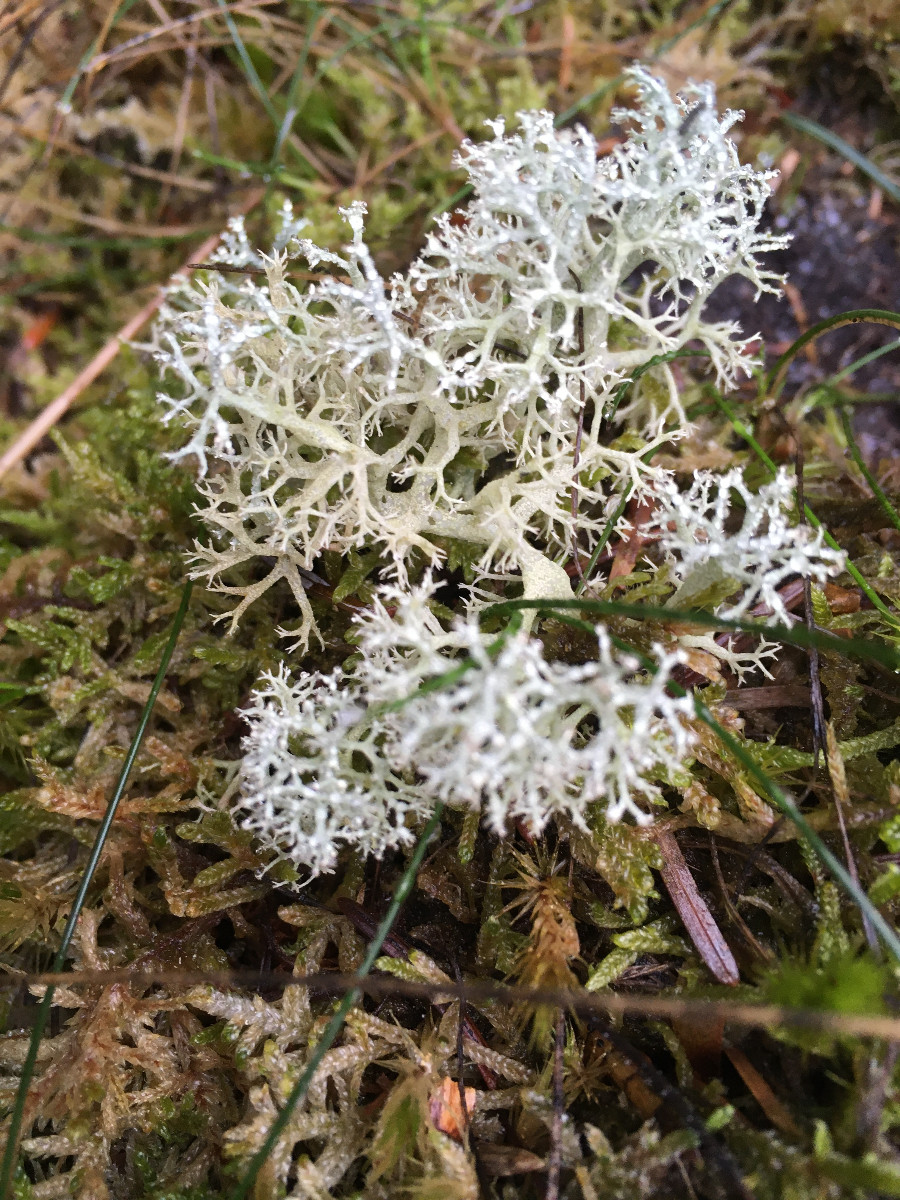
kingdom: Fungi
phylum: Ascomycota
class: Lecanoromycetes
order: Lecanorales
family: Cladoniaceae
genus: Cladonia
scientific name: Cladonia portentosa
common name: hede-rensdyrlav
